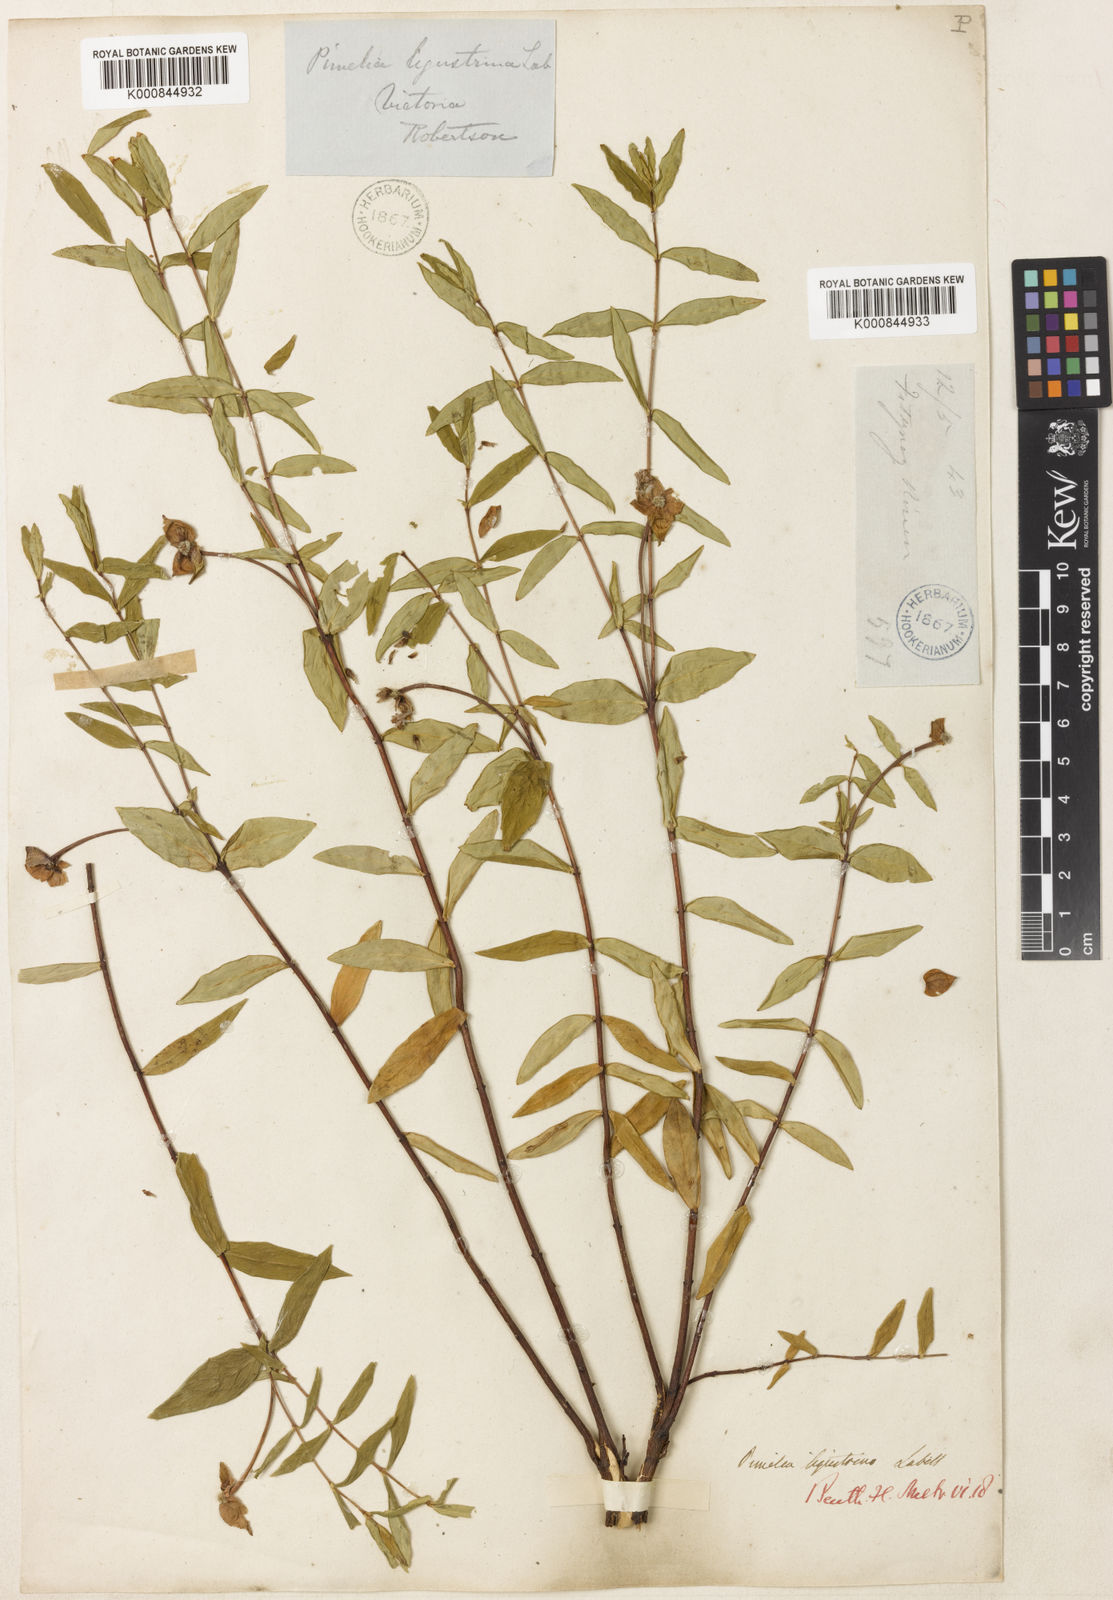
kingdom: Plantae
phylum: Tracheophyta
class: Magnoliopsida
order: Malvales
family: Thymelaeaceae
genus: Pimelea
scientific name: Pimelea ligustrina
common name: Tall riceflower
